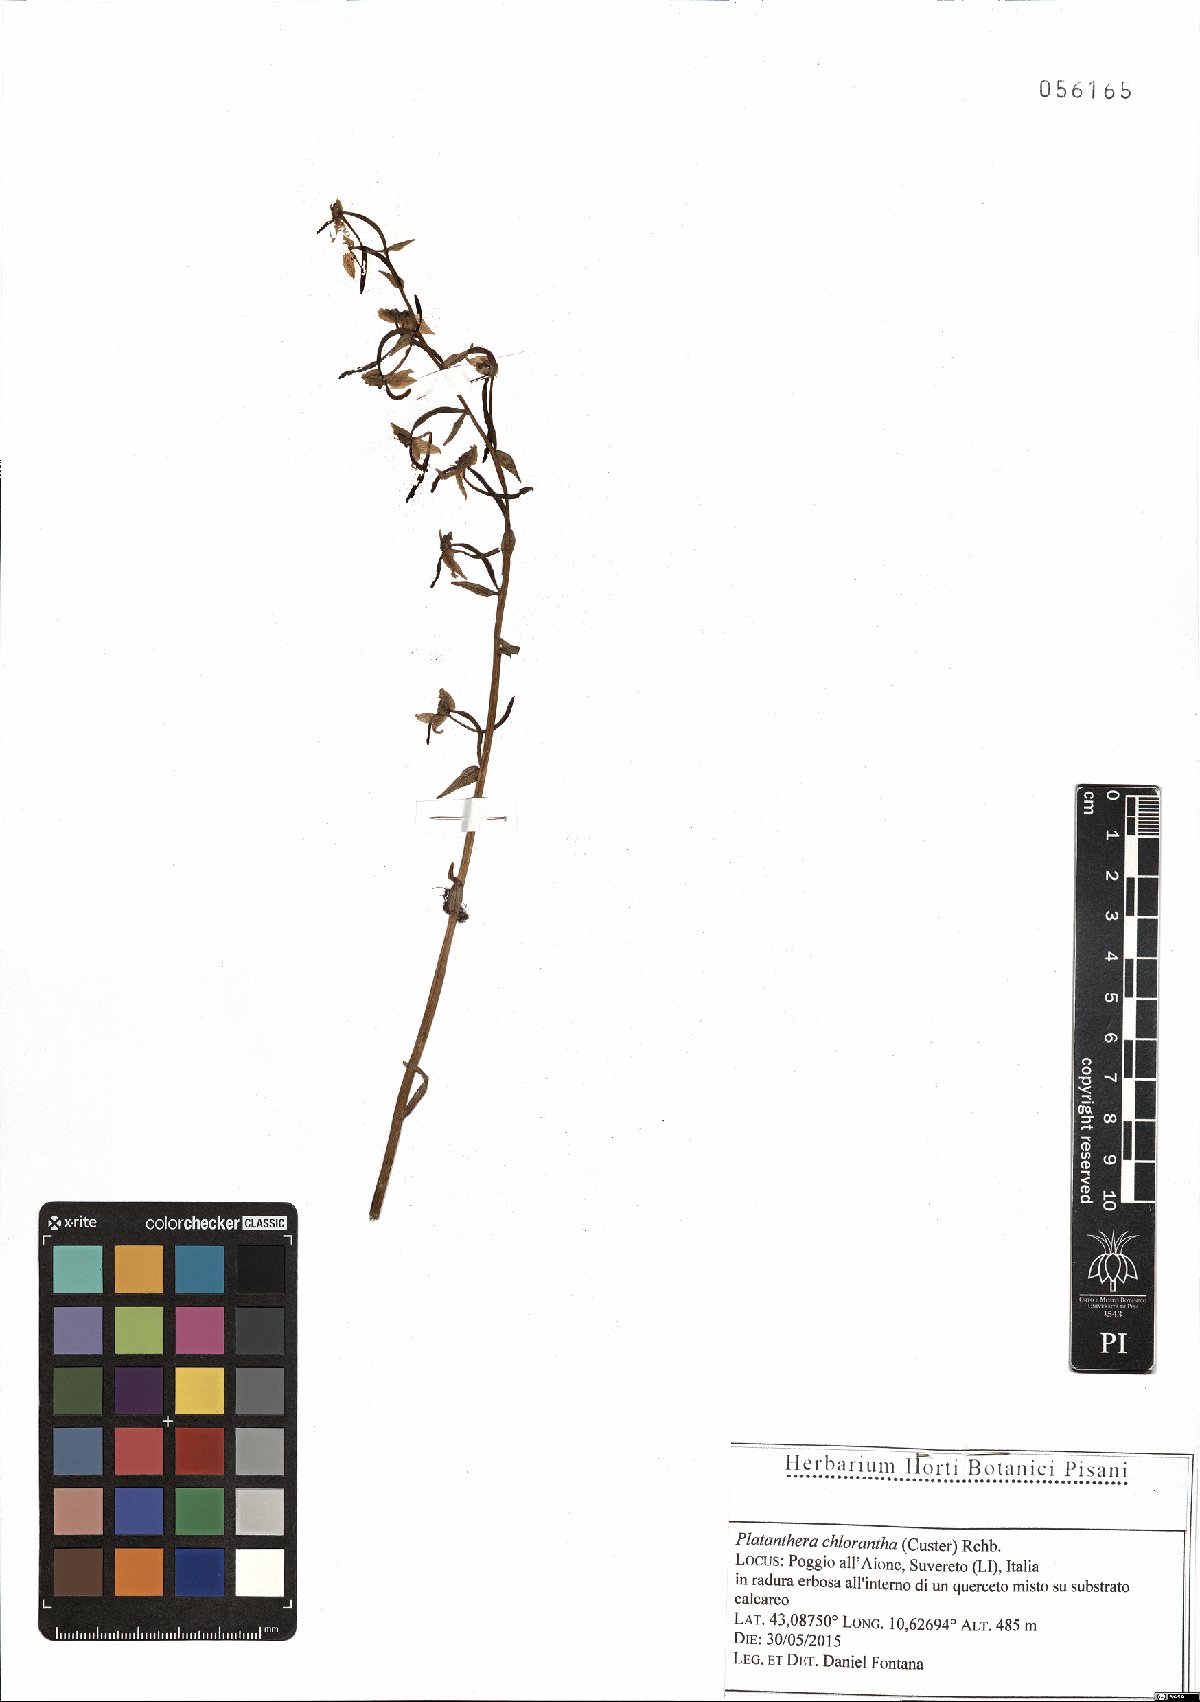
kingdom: Plantae
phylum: Tracheophyta
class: Liliopsida
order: Asparagales
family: Orchidaceae
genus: Platanthera
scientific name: Platanthera chlorantha
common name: Greater butterfly-orchid
